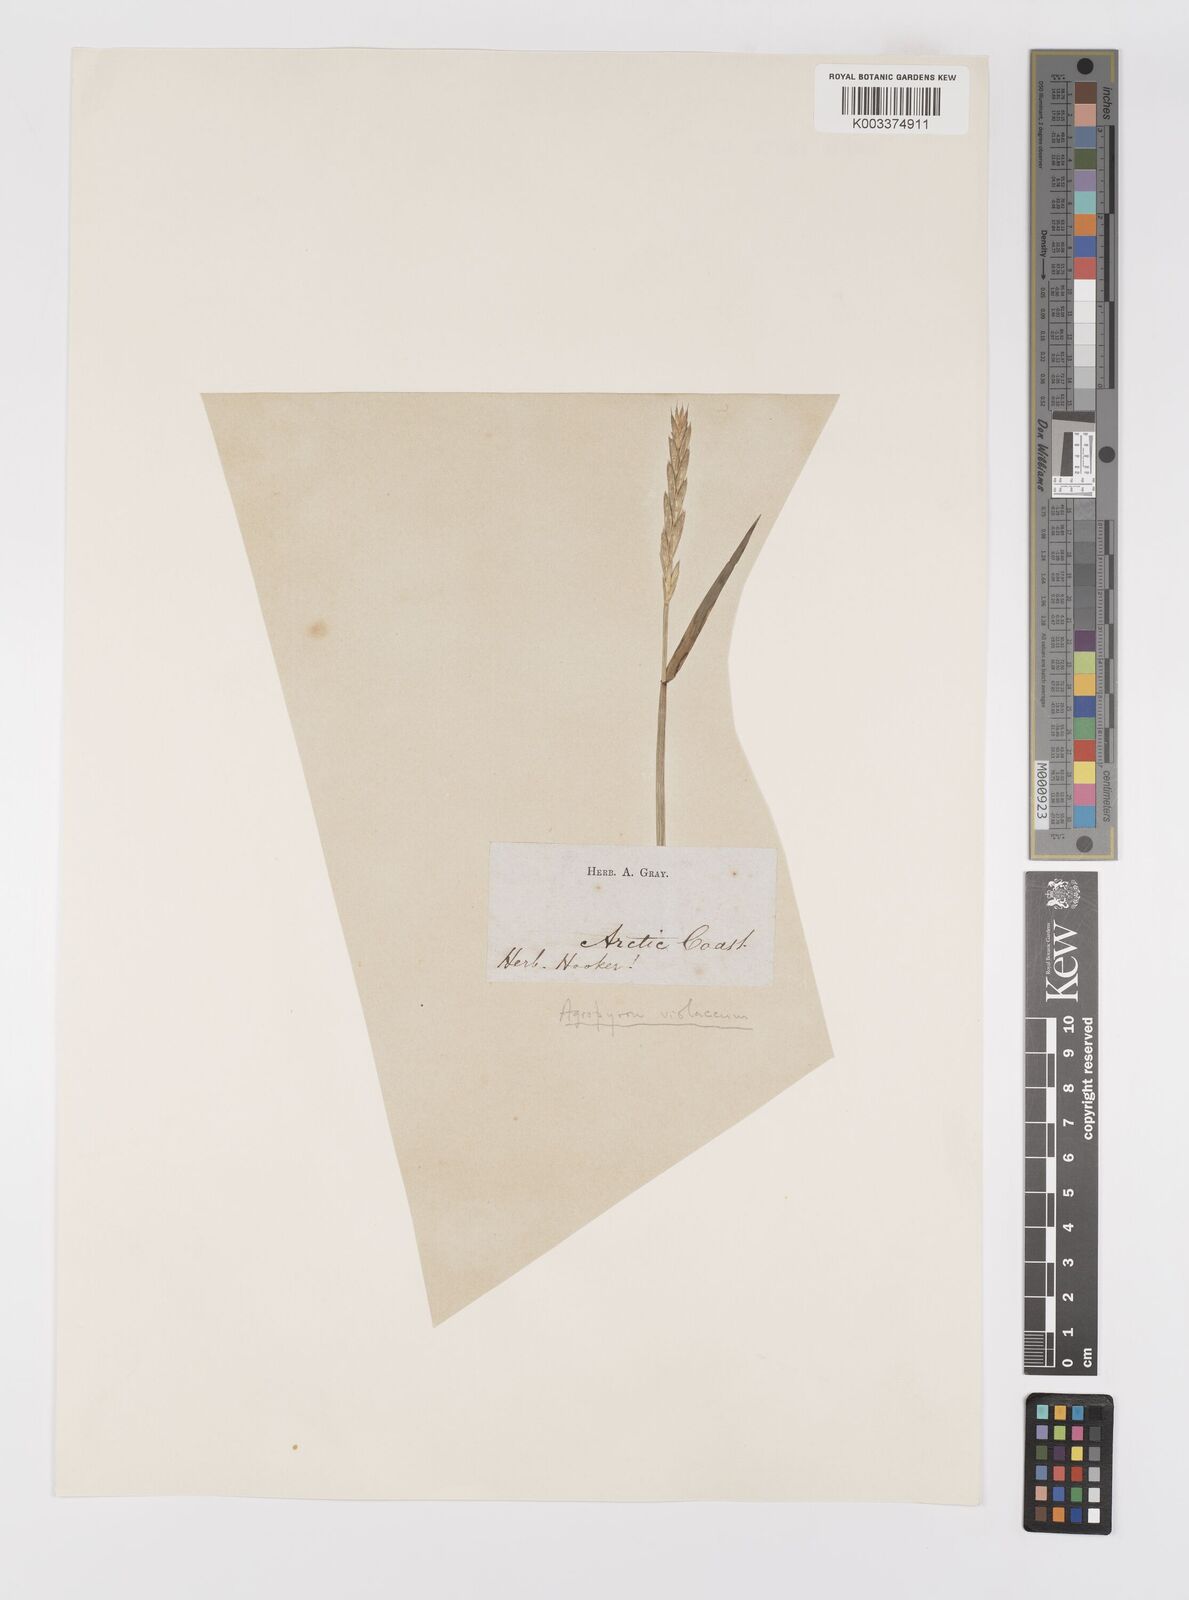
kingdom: Plantae
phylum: Tracheophyta
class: Liliopsida
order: Poales
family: Poaceae
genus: Elymus
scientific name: Elymus violaceus
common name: Arctic wheatgrass
